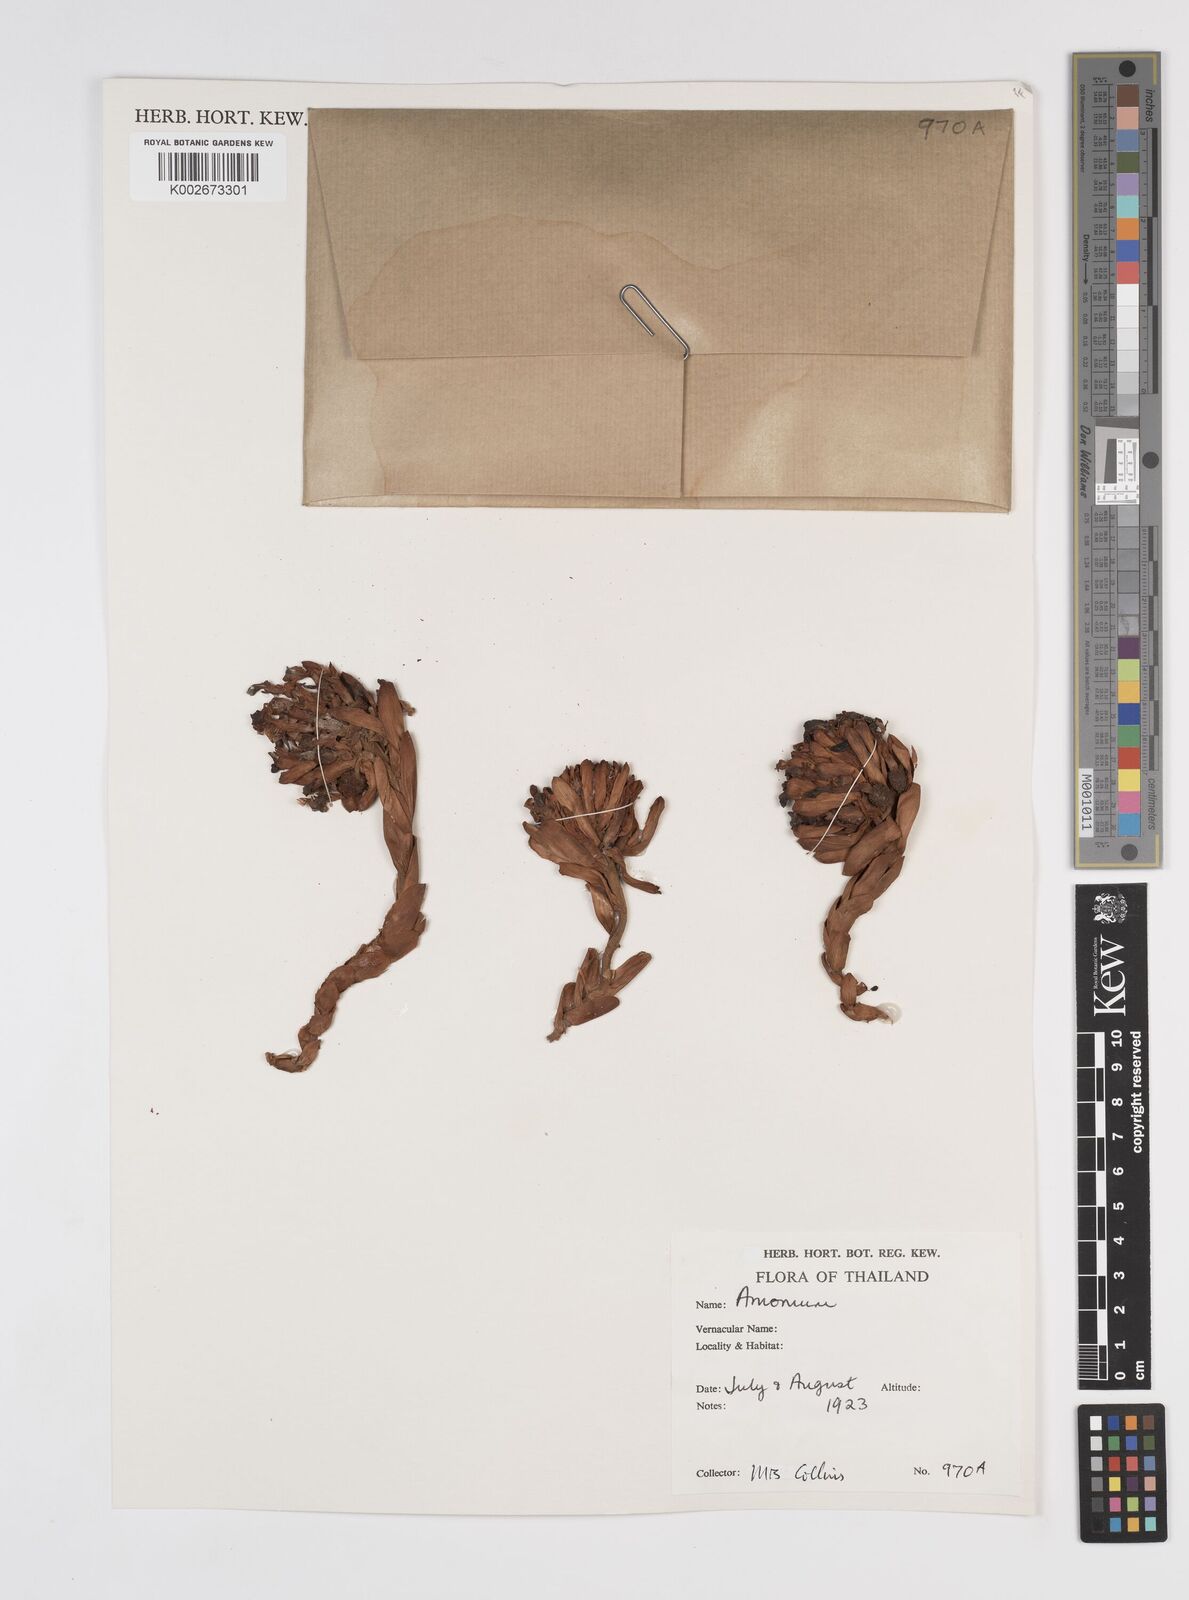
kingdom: Plantae
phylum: Tracheophyta
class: Liliopsida
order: Zingiberales
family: Zingiberaceae
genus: Amomum
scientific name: Amomum
